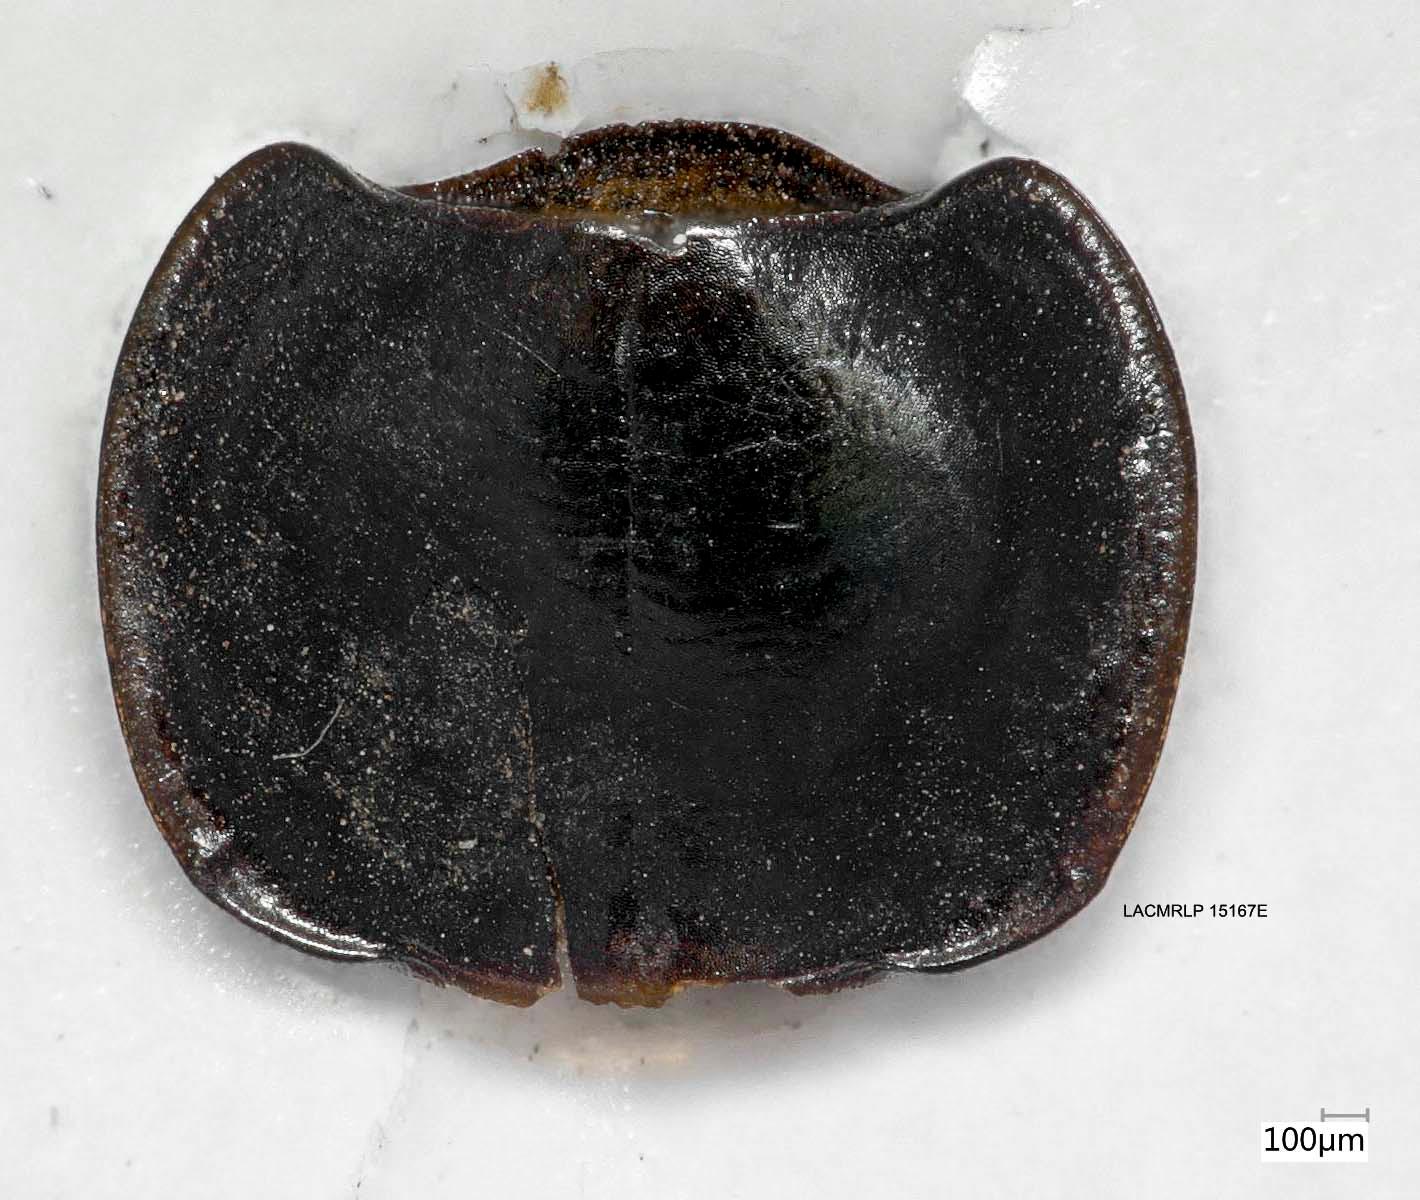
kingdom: Animalia
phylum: Arthropoda
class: Insecta
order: Coleoptera
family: Carabidae
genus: Tanystoma
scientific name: Tanystoma maculicolle
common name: Tule beetle
